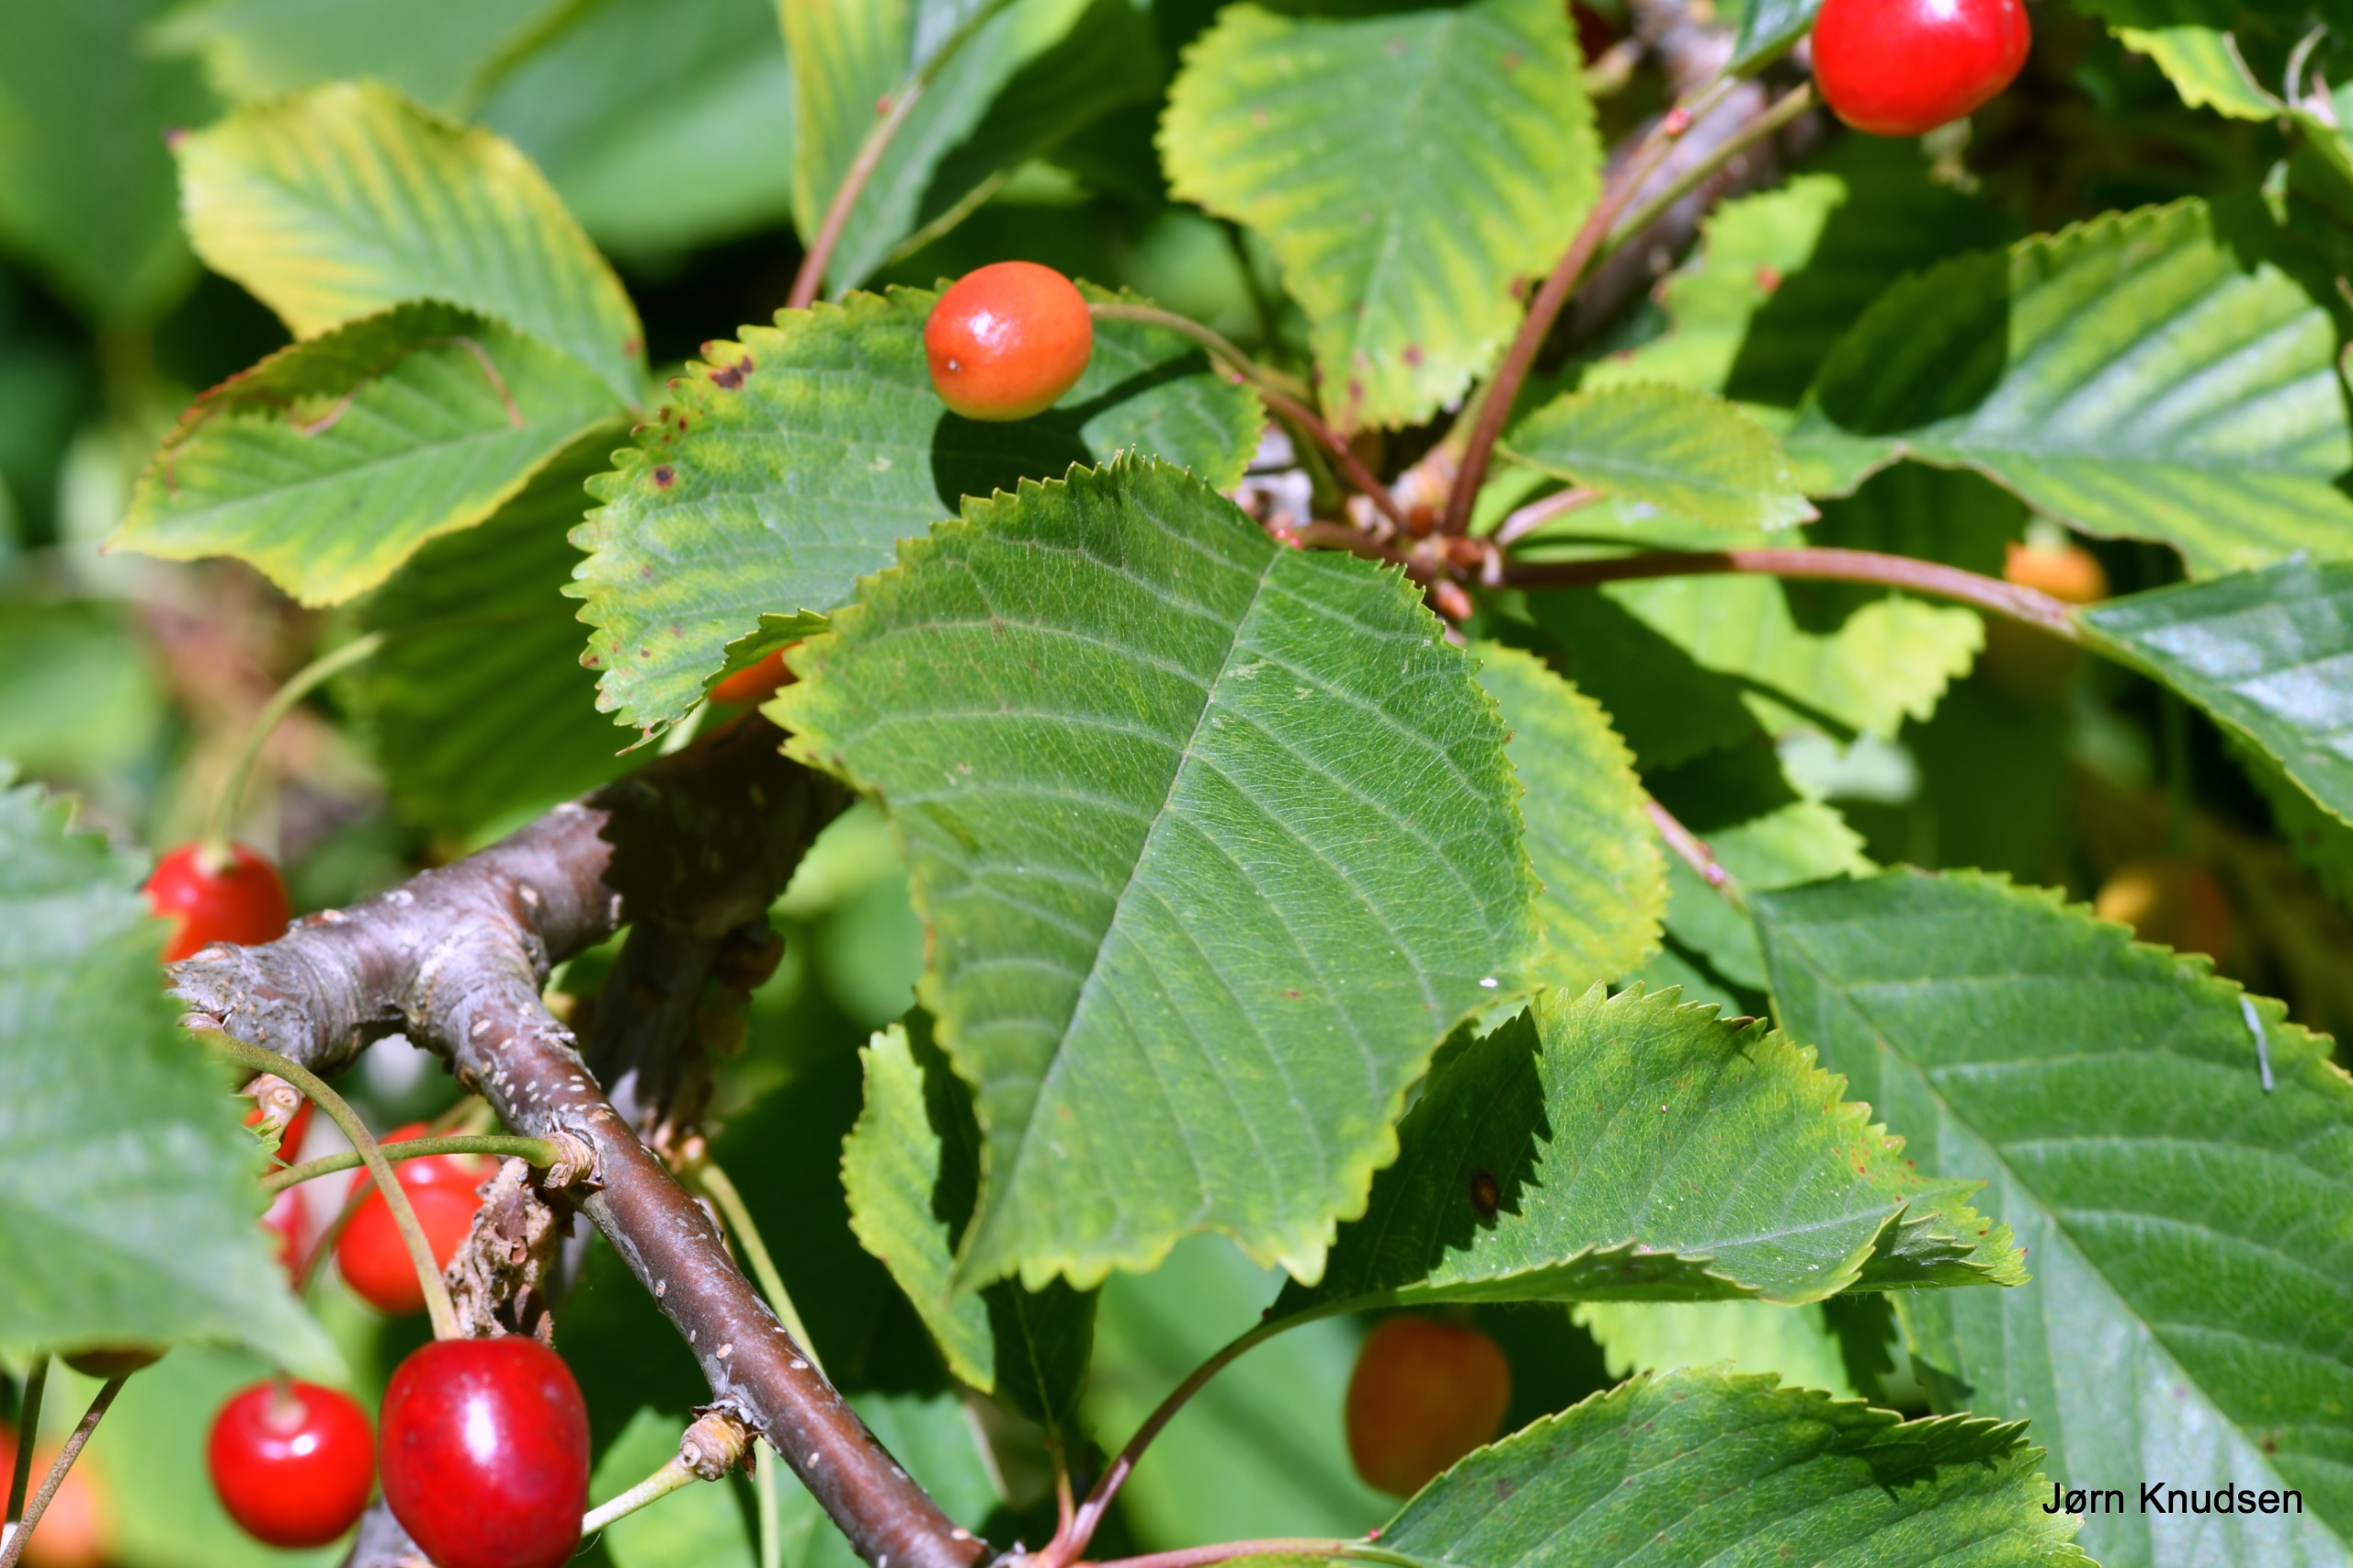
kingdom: Plantae
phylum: Tracheophyta
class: Magnoliopsida
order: Rosales
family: Rosaceae
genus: Prunus
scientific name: Prunus avium
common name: Fugle-kirsebær
